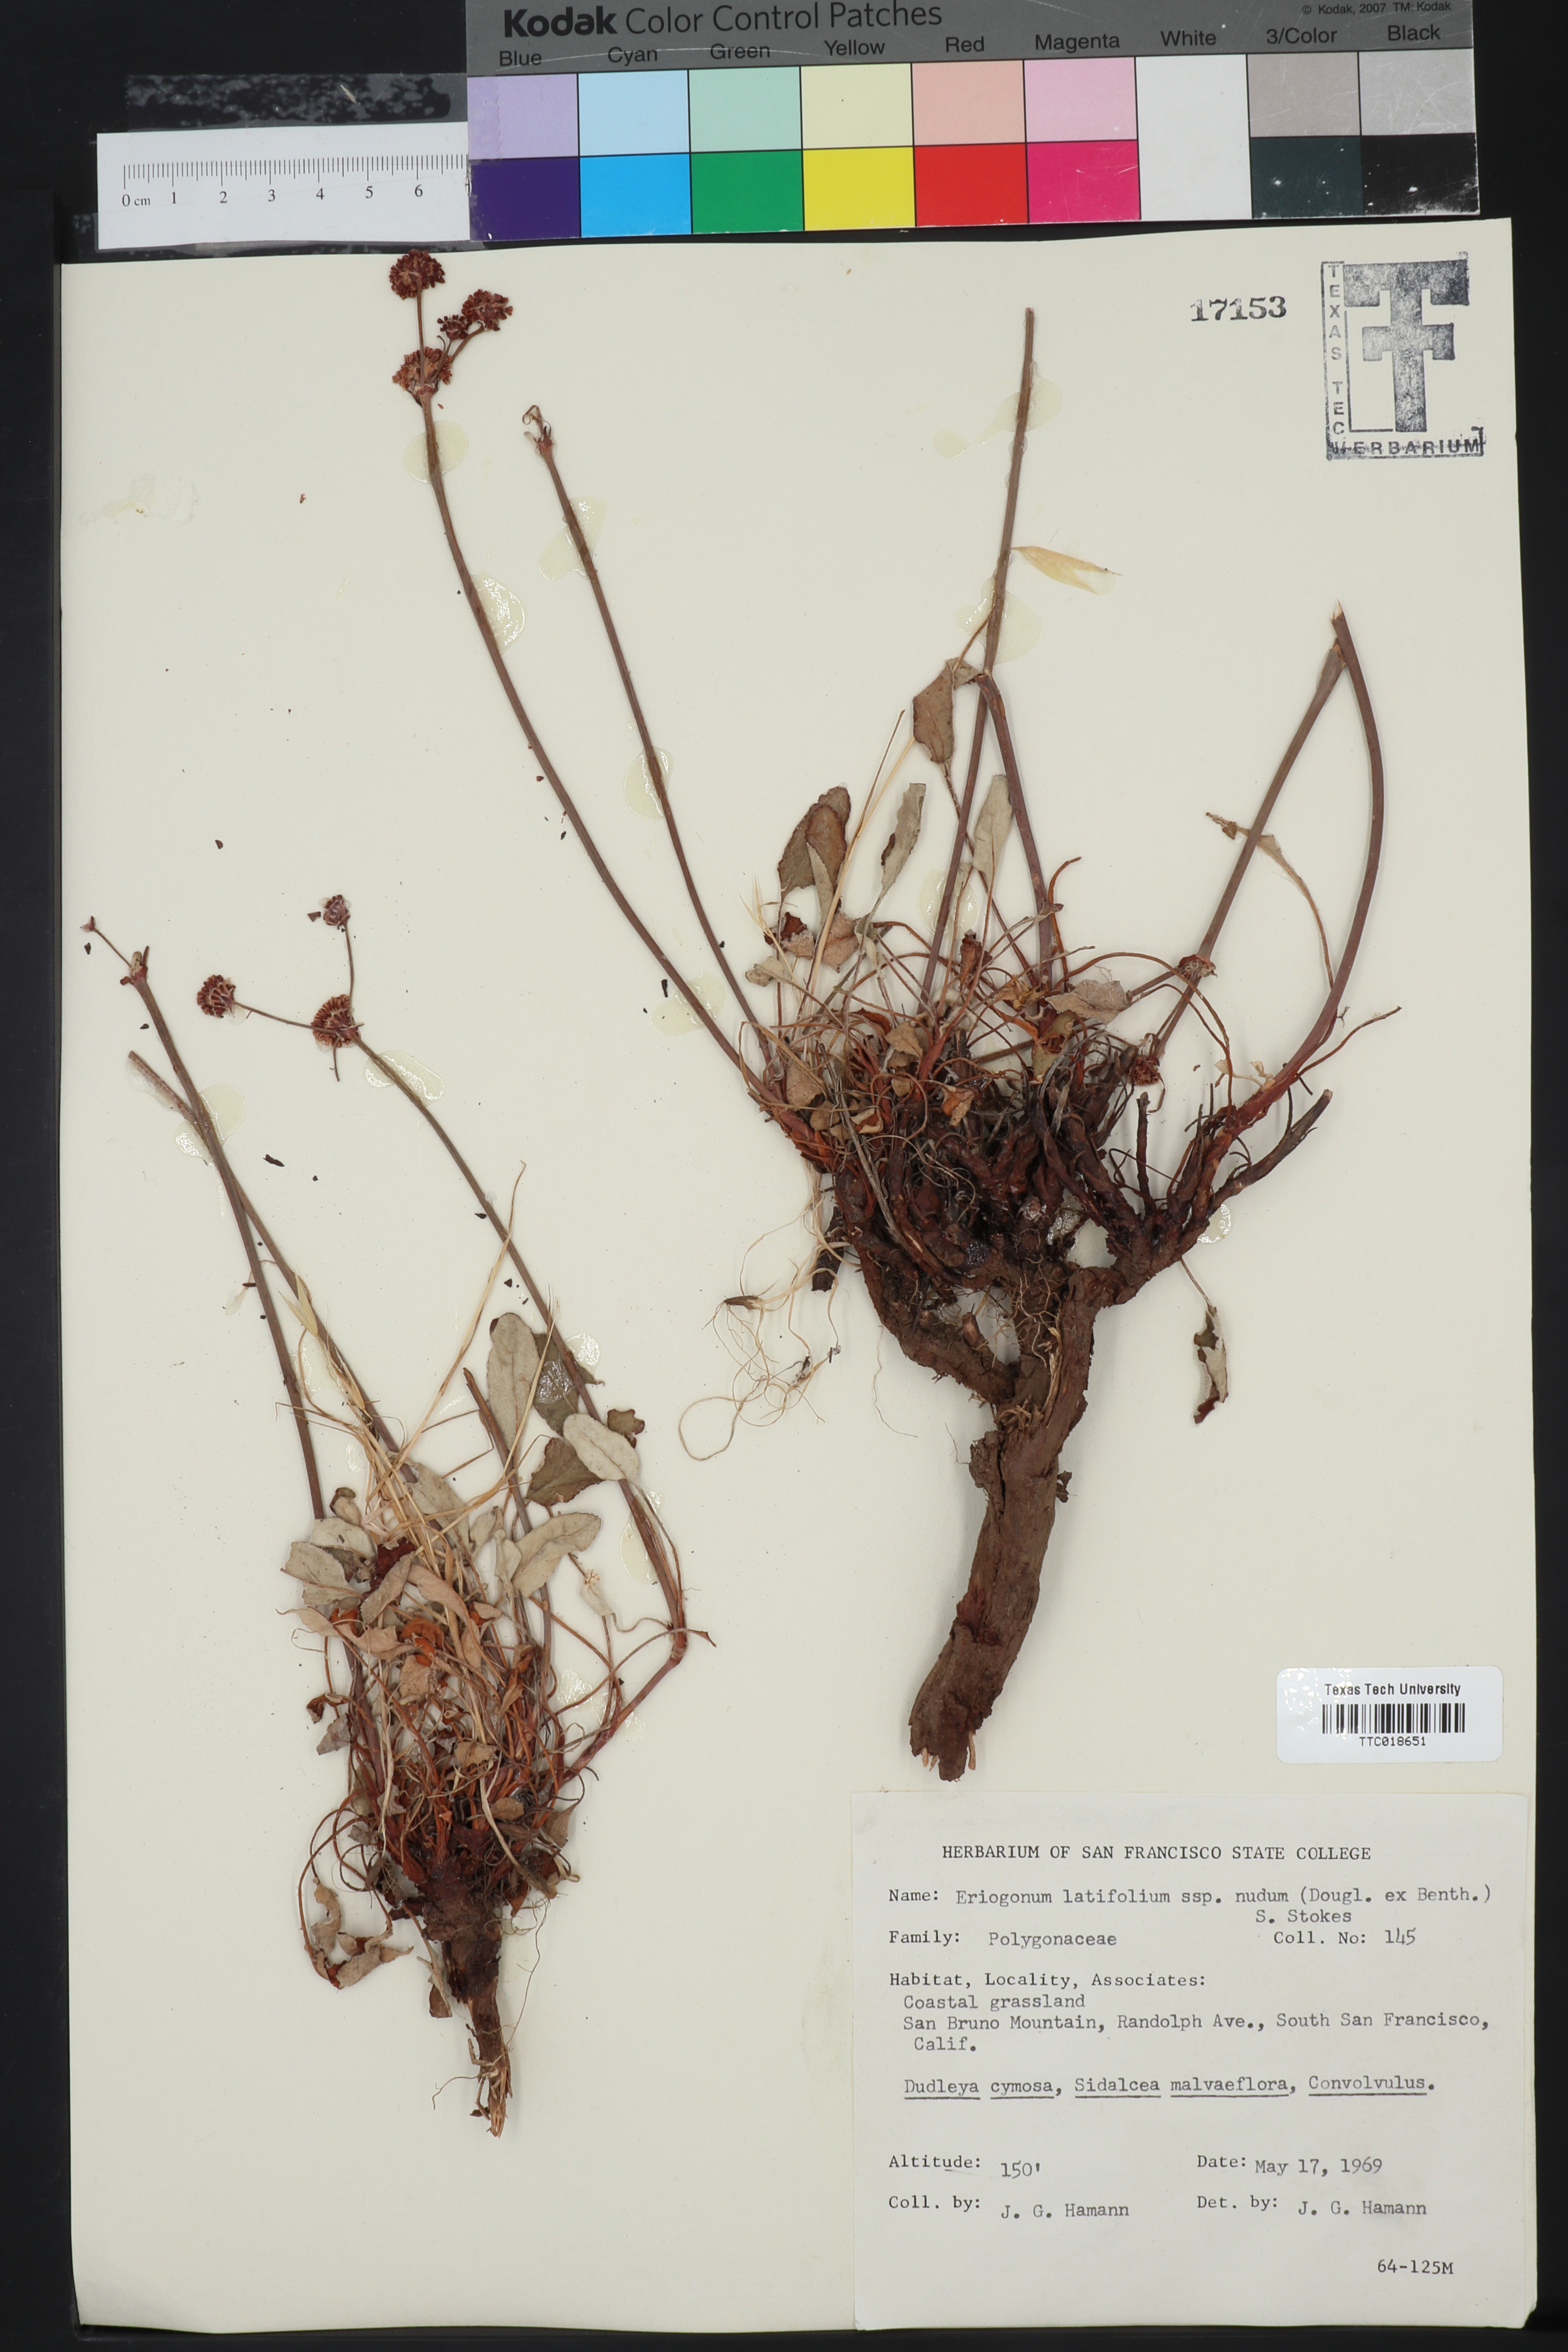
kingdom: Plantae
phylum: Tracheophyta
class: Magnoliopsida
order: Caryophyllales
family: Polygonaceae
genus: Eriogonum
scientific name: Eriogonum nudum
